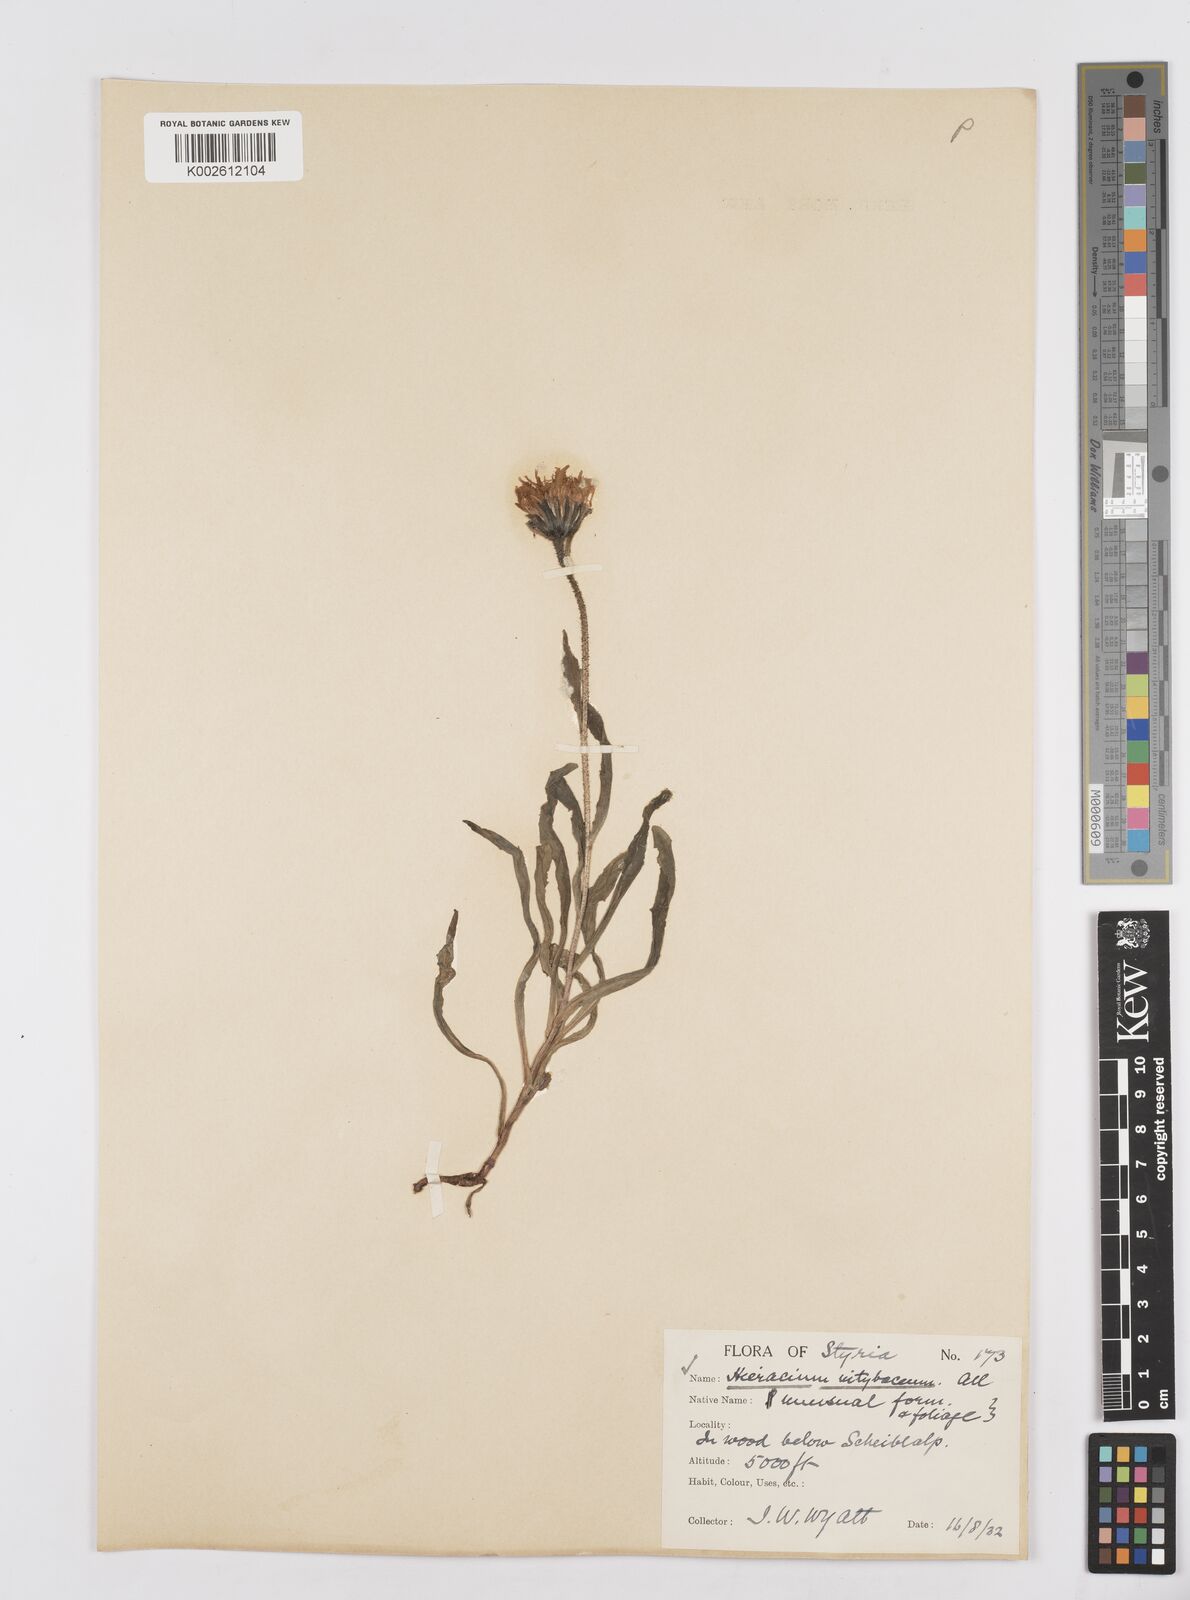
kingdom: Plantae
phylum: Tracheophyta
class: Magnoliopsida
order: Asterales
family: Asteraceae
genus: Hieracium
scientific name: Hieracium
